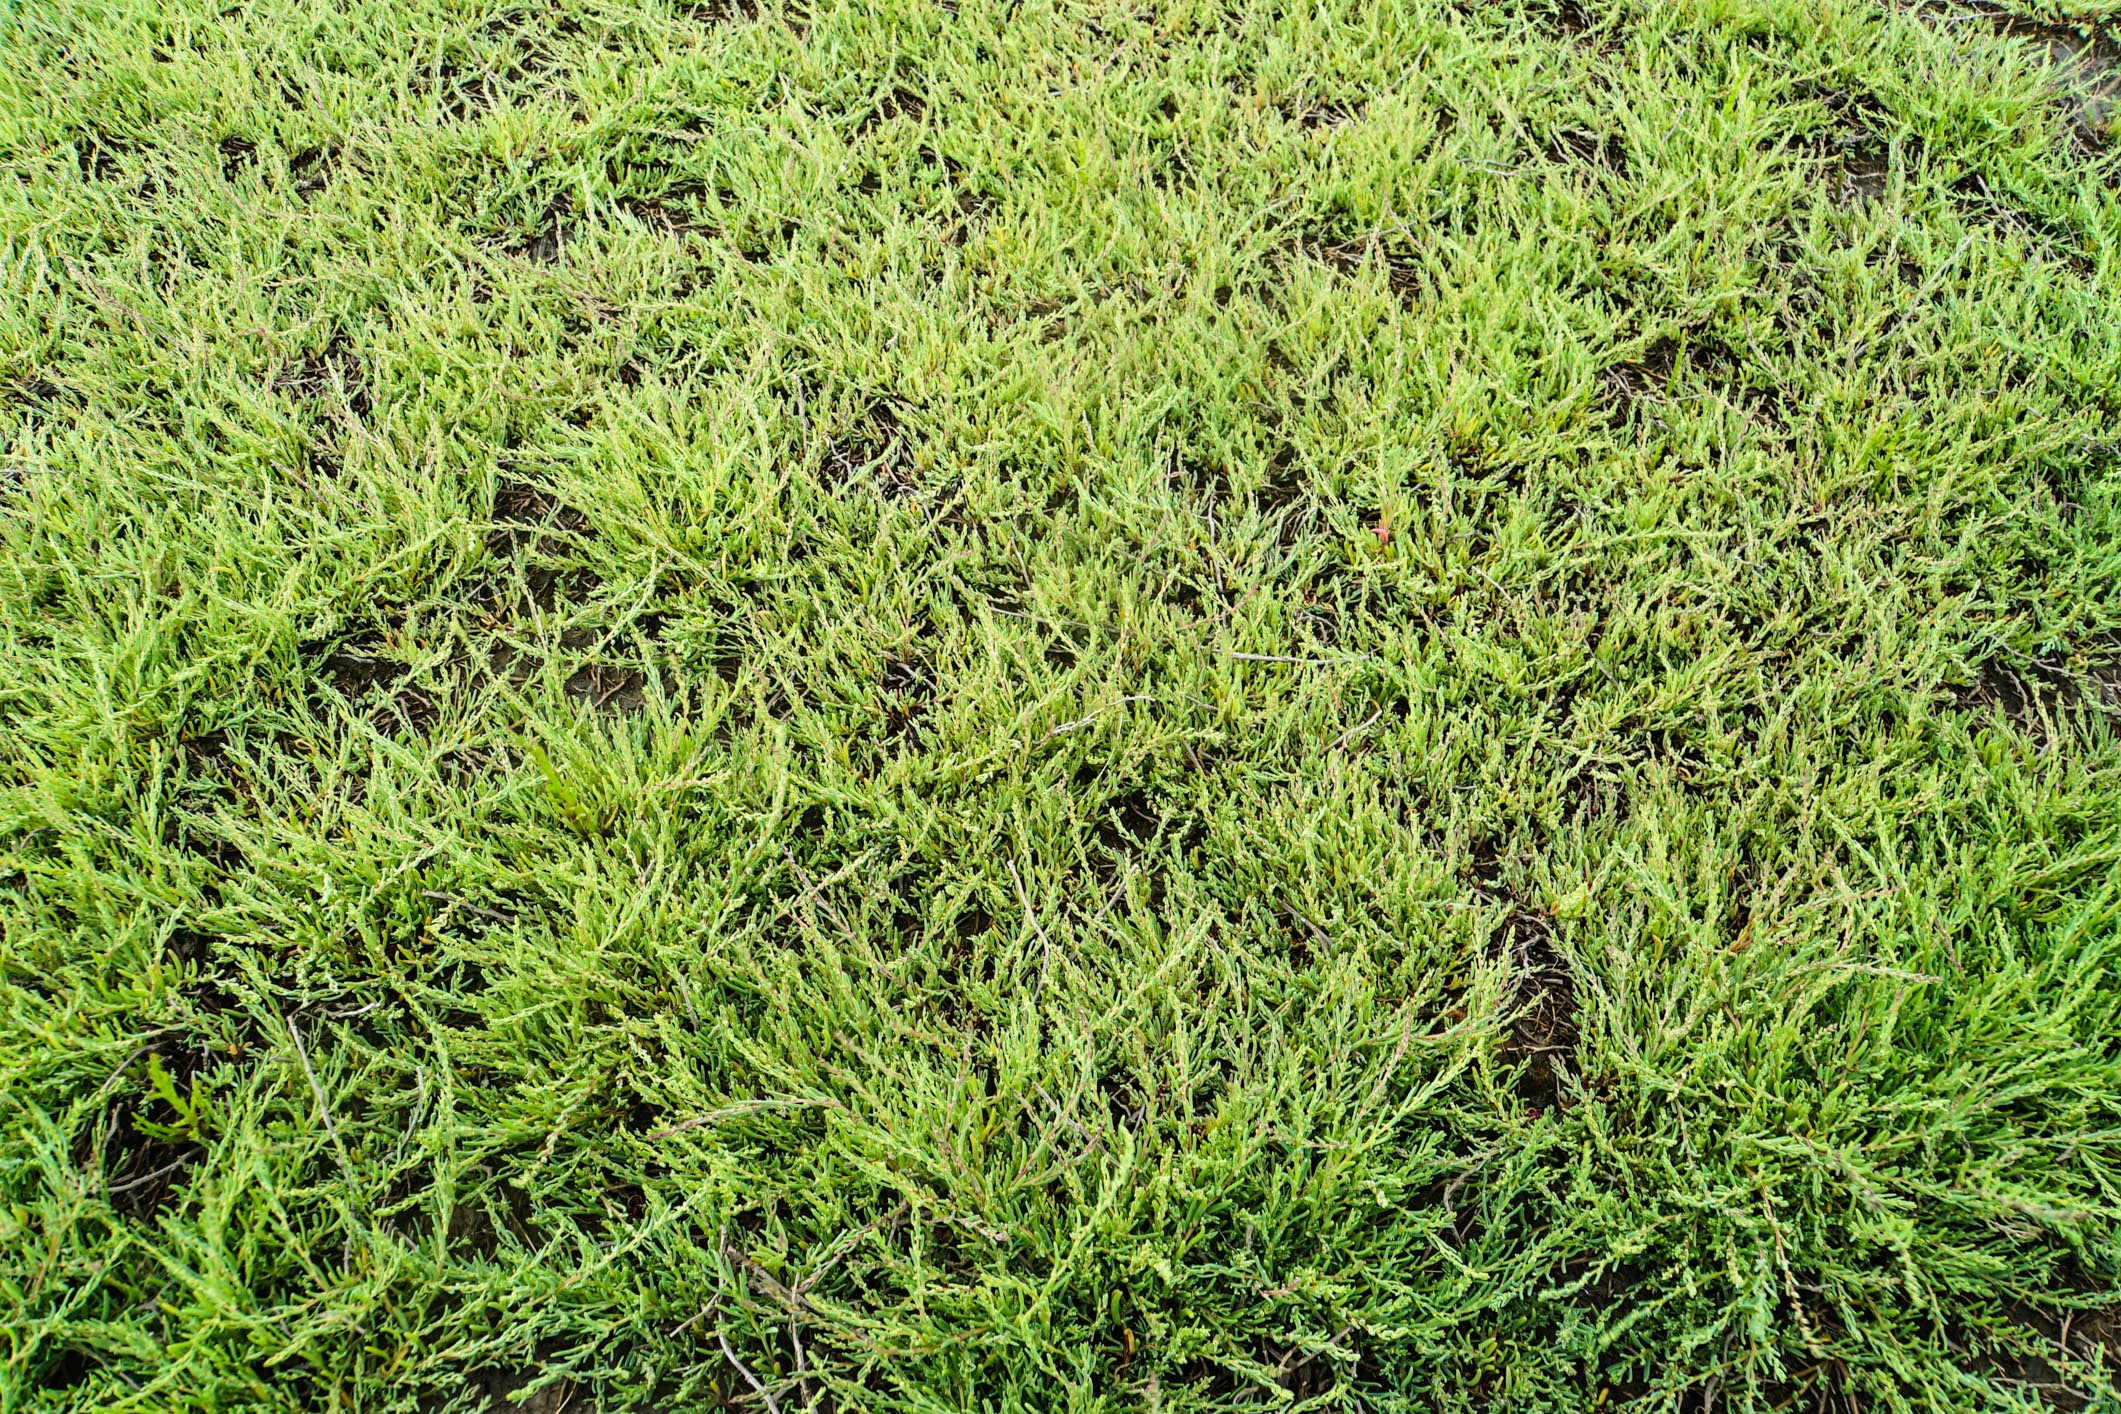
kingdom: Plantae
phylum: Tracheophyta
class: Magnoliopsida
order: Caryophyllales
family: Amaranthaceae
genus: Suaeda
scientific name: Suaeda maritima
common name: Annual sea-blite
